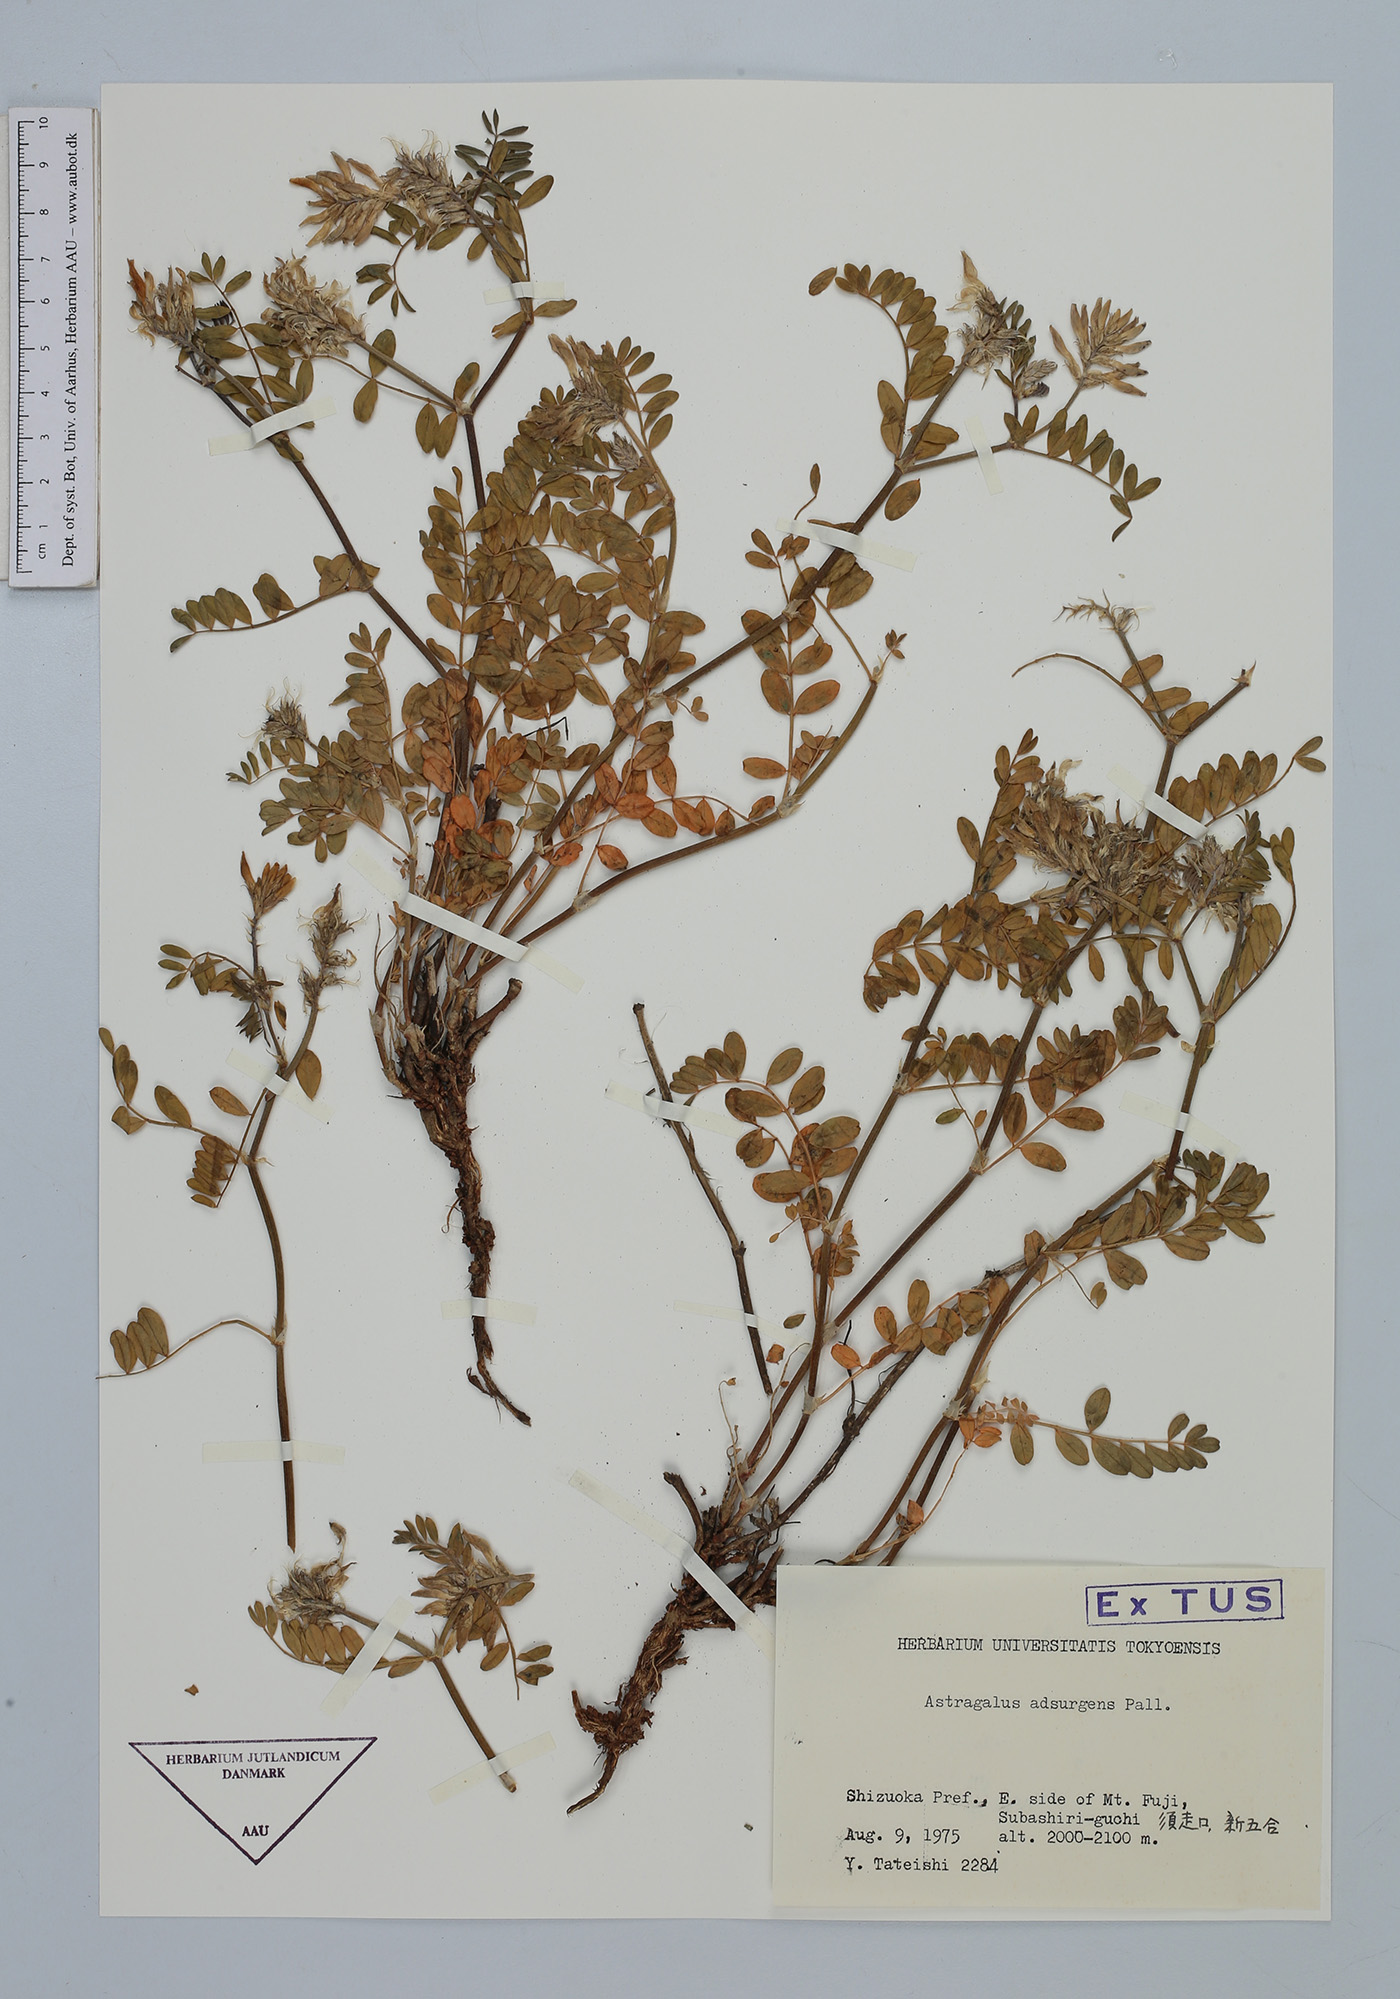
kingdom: Plantae
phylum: Tracheophyta
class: Magnoliopsida
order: Fabales
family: Fabaceae
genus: Astragalus
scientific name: Astragalus laxmannii
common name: Laxmann's milk-vetch
